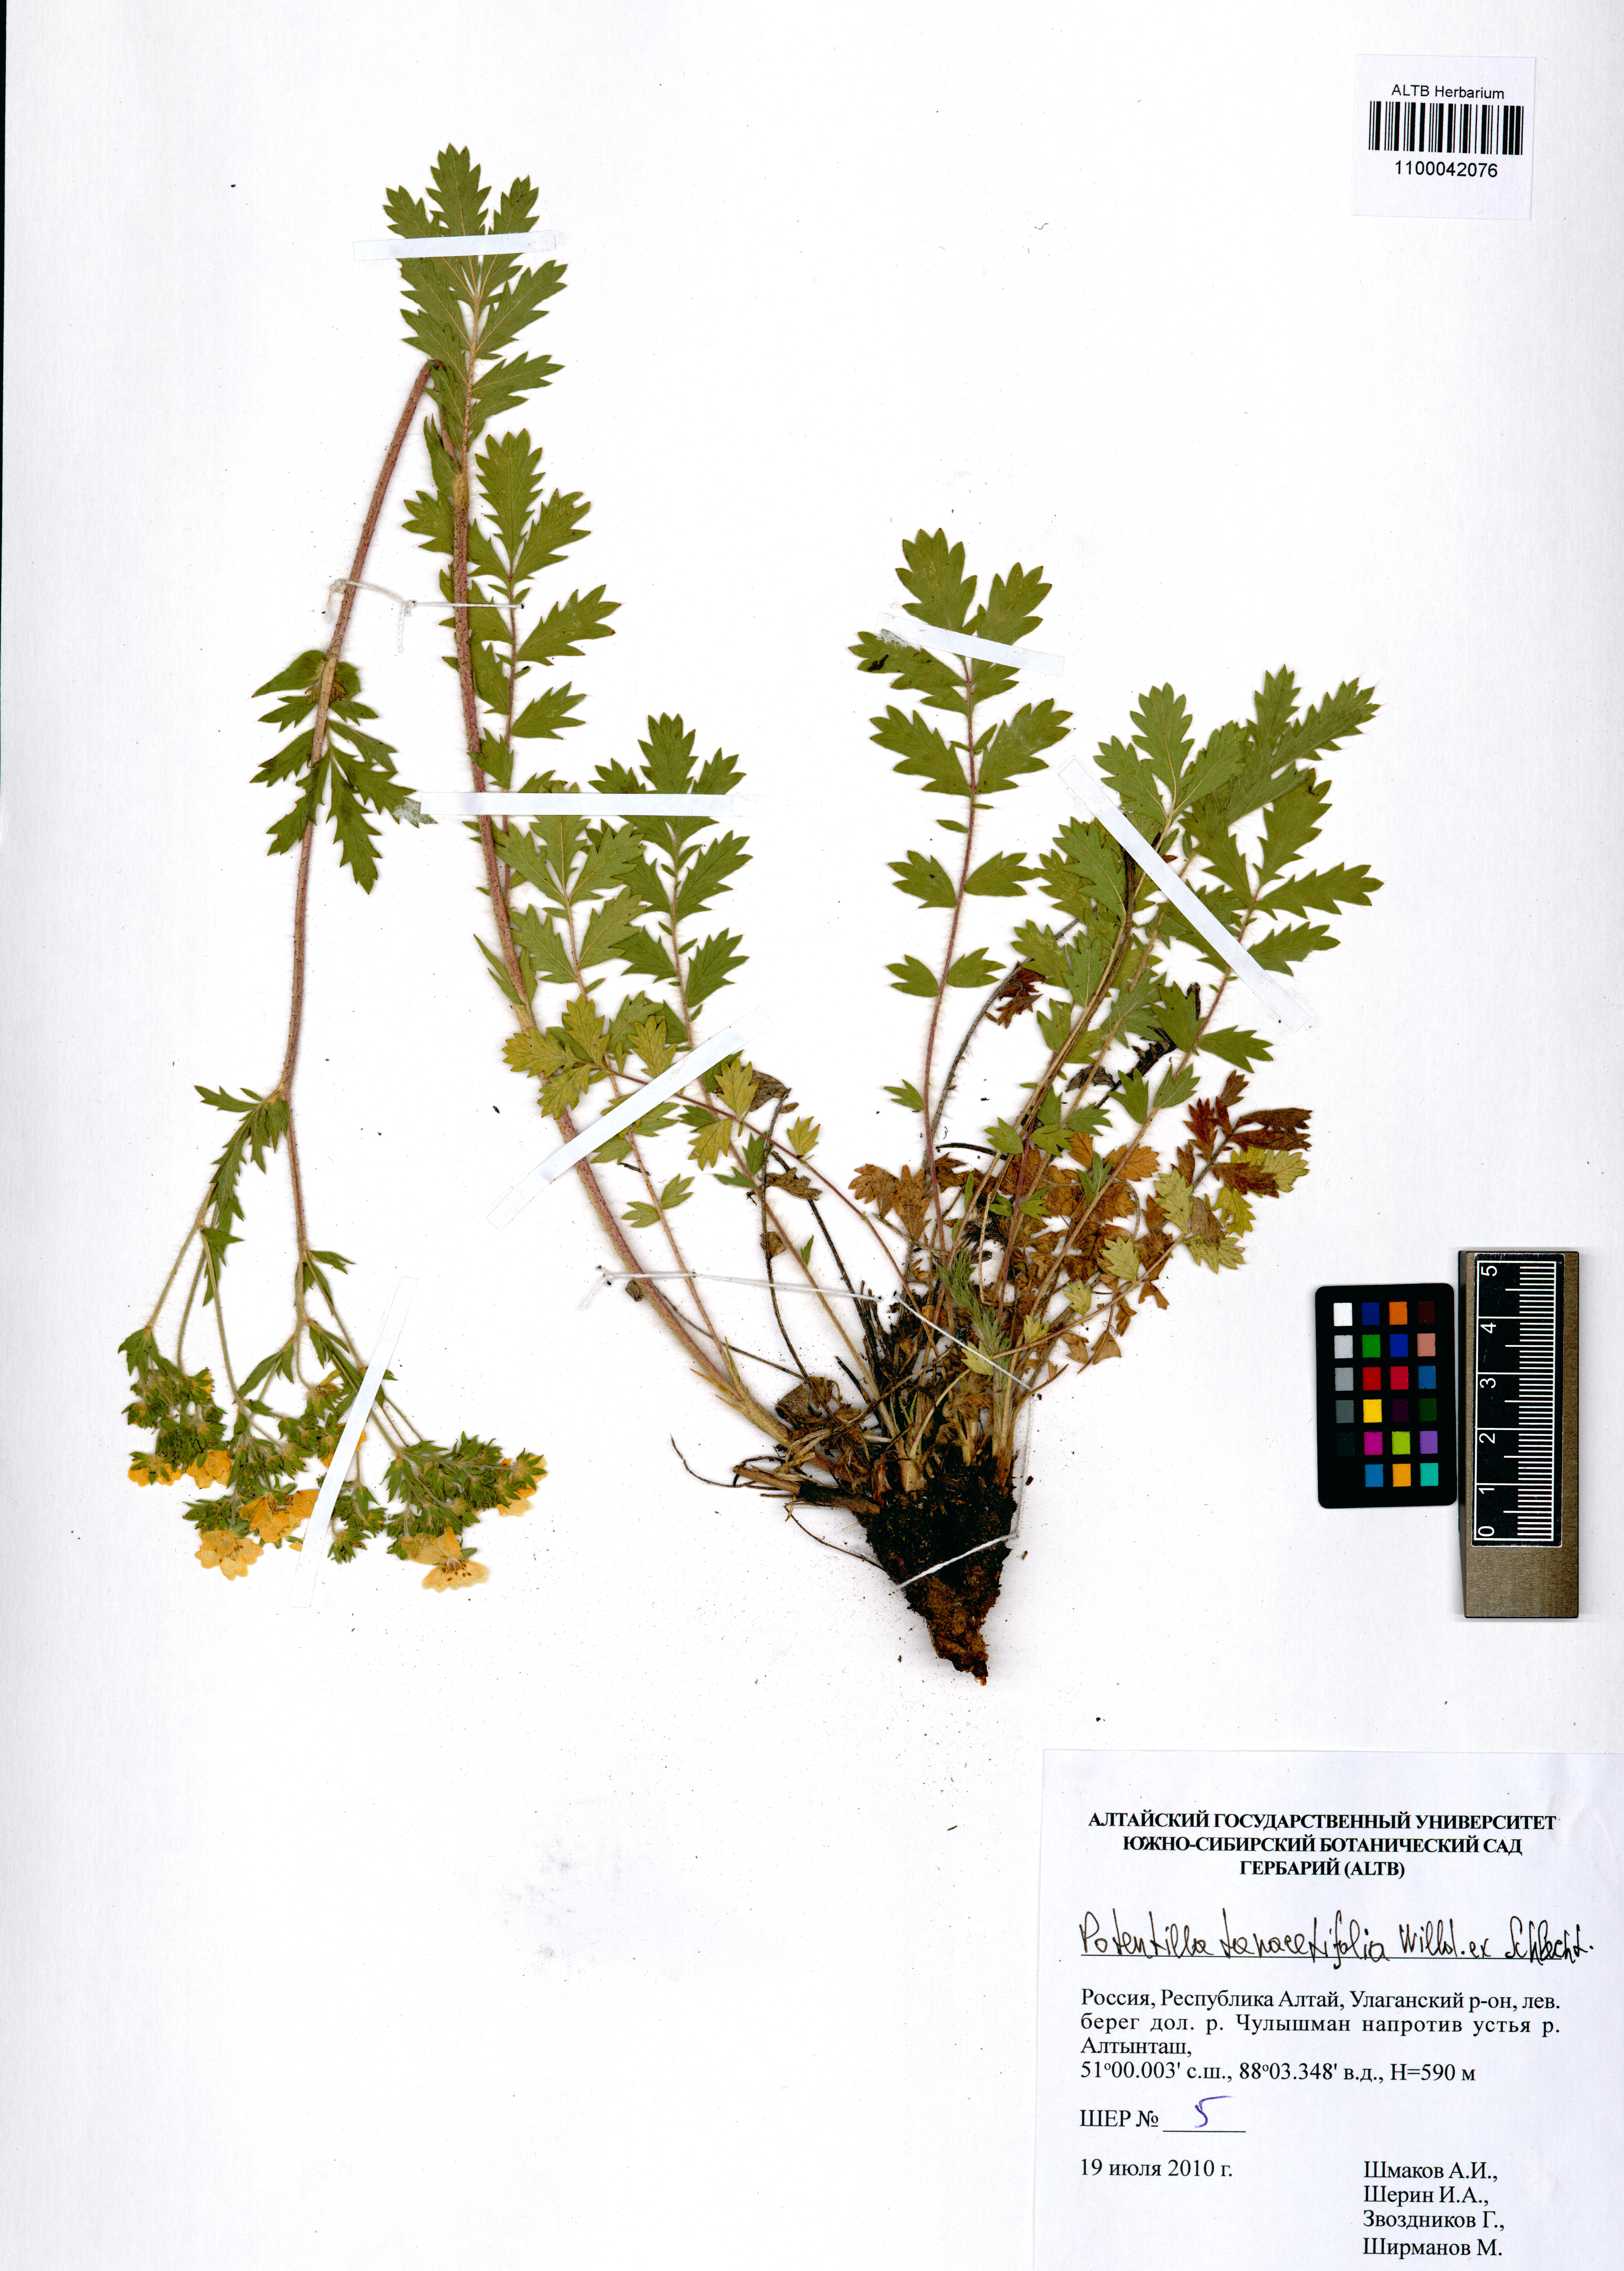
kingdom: Plantae
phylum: Tracheophyta
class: Magnoliopsida
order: Rosales
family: Rosaceae
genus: Potentilla
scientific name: Potentilla tanacetifolia
